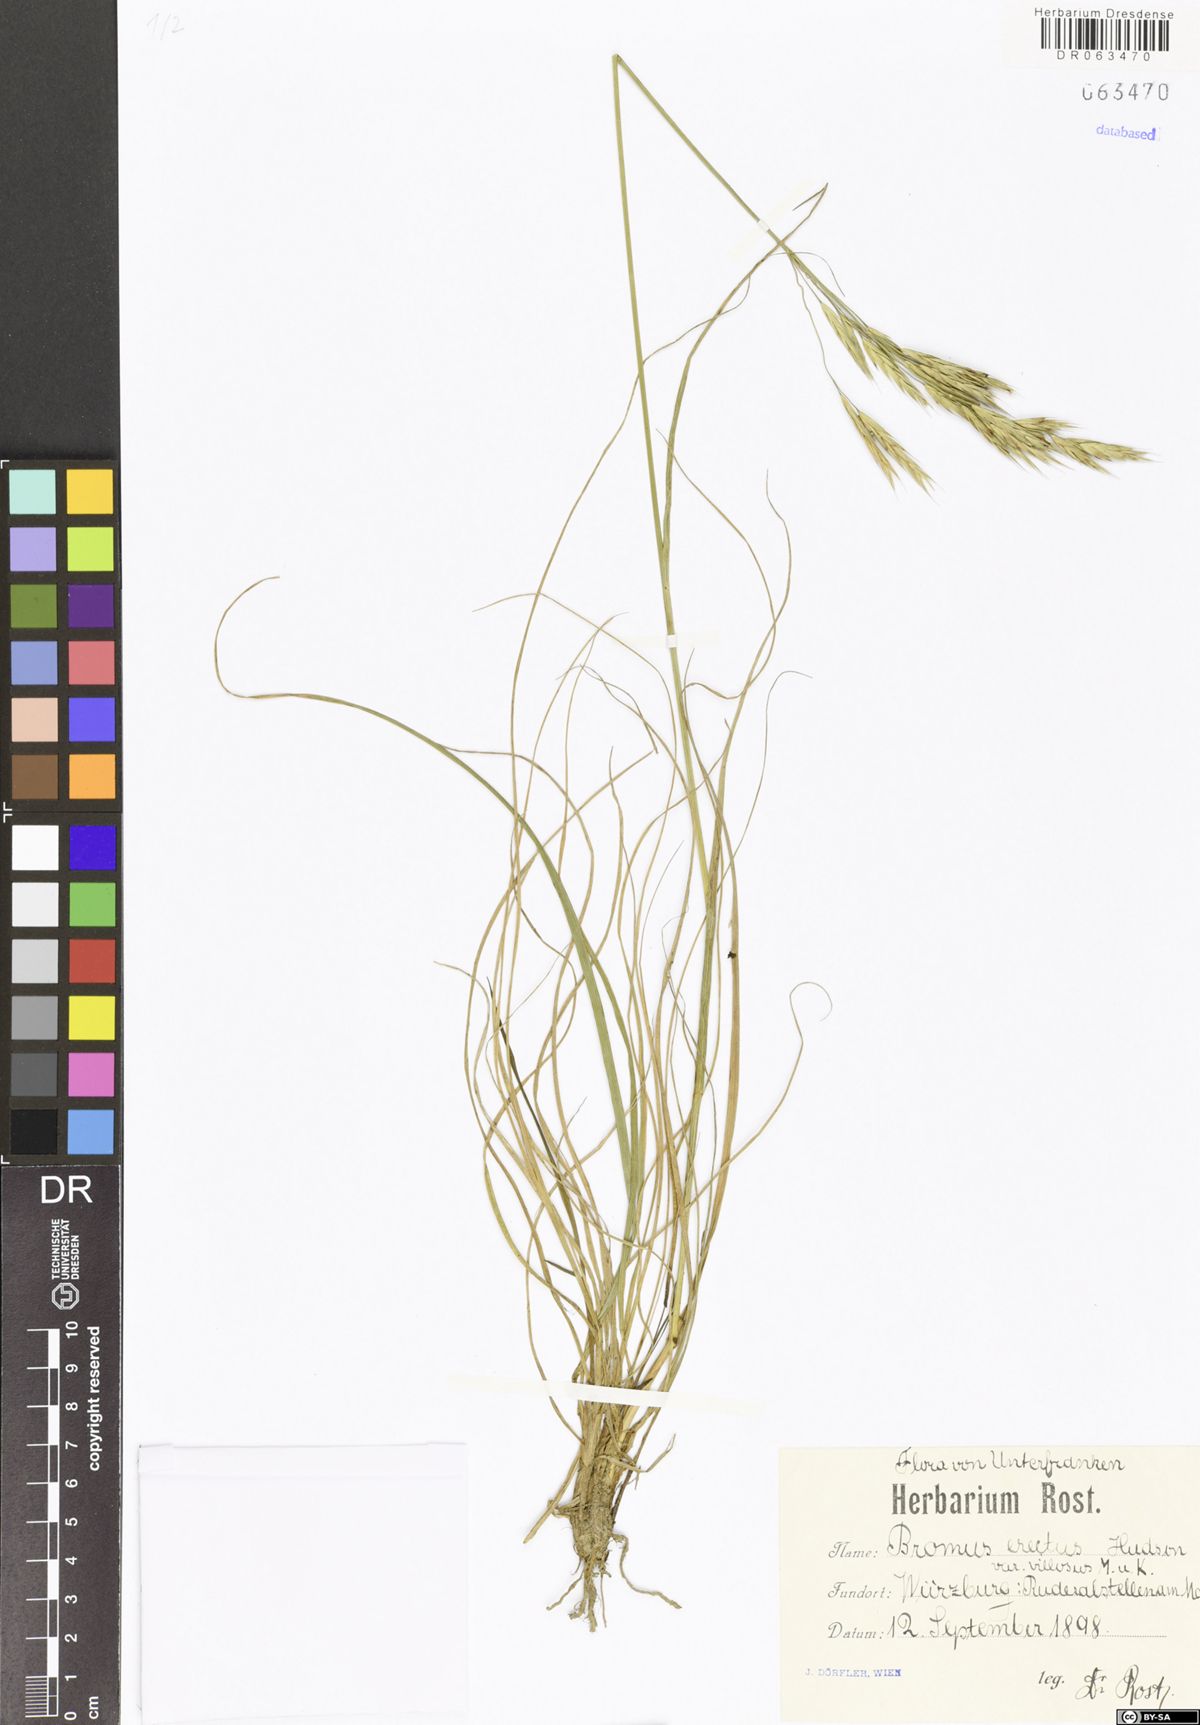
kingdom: Plantae
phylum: Tracheophyta
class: Liliopsida
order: Poales
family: Poaceae
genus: Bromus
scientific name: Bromus erectus
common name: Erect brome
